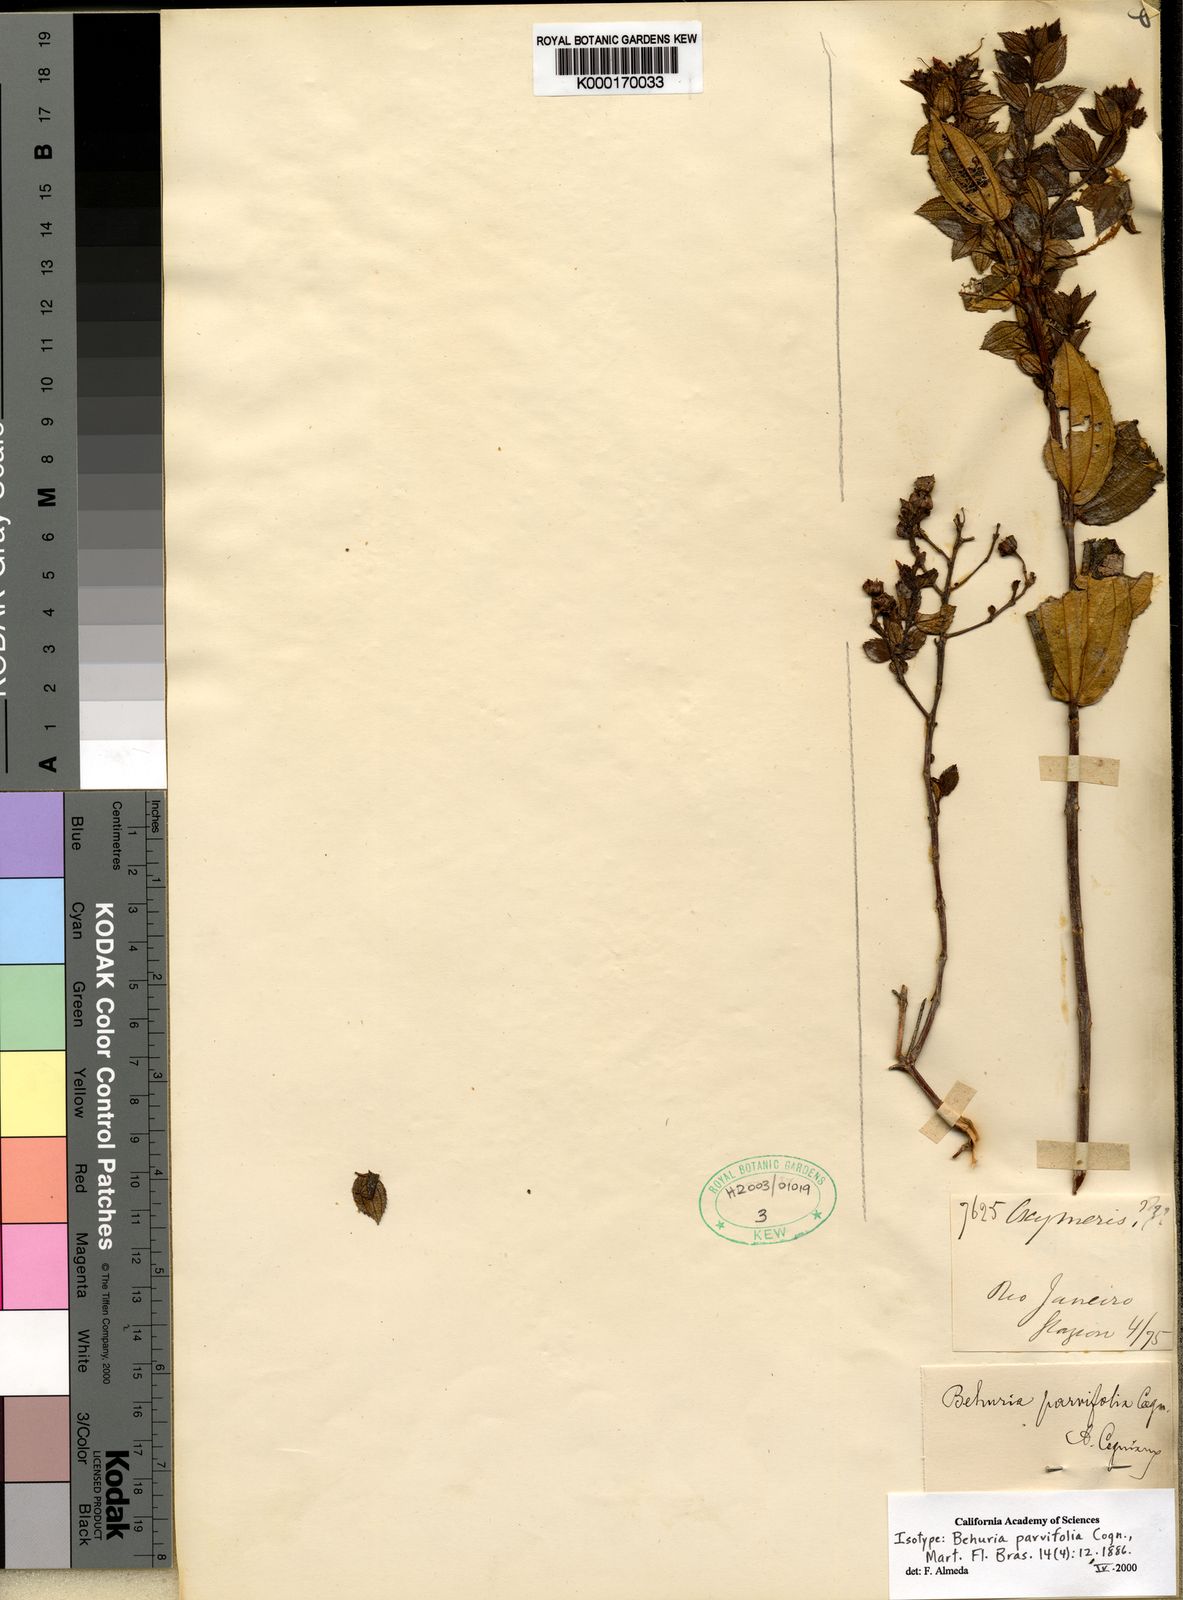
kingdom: Plantae
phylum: Tracheophyta
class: Magnoliopsida
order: Myrtales
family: Melastomataceae
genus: Huberia
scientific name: Huberia minutifolia
